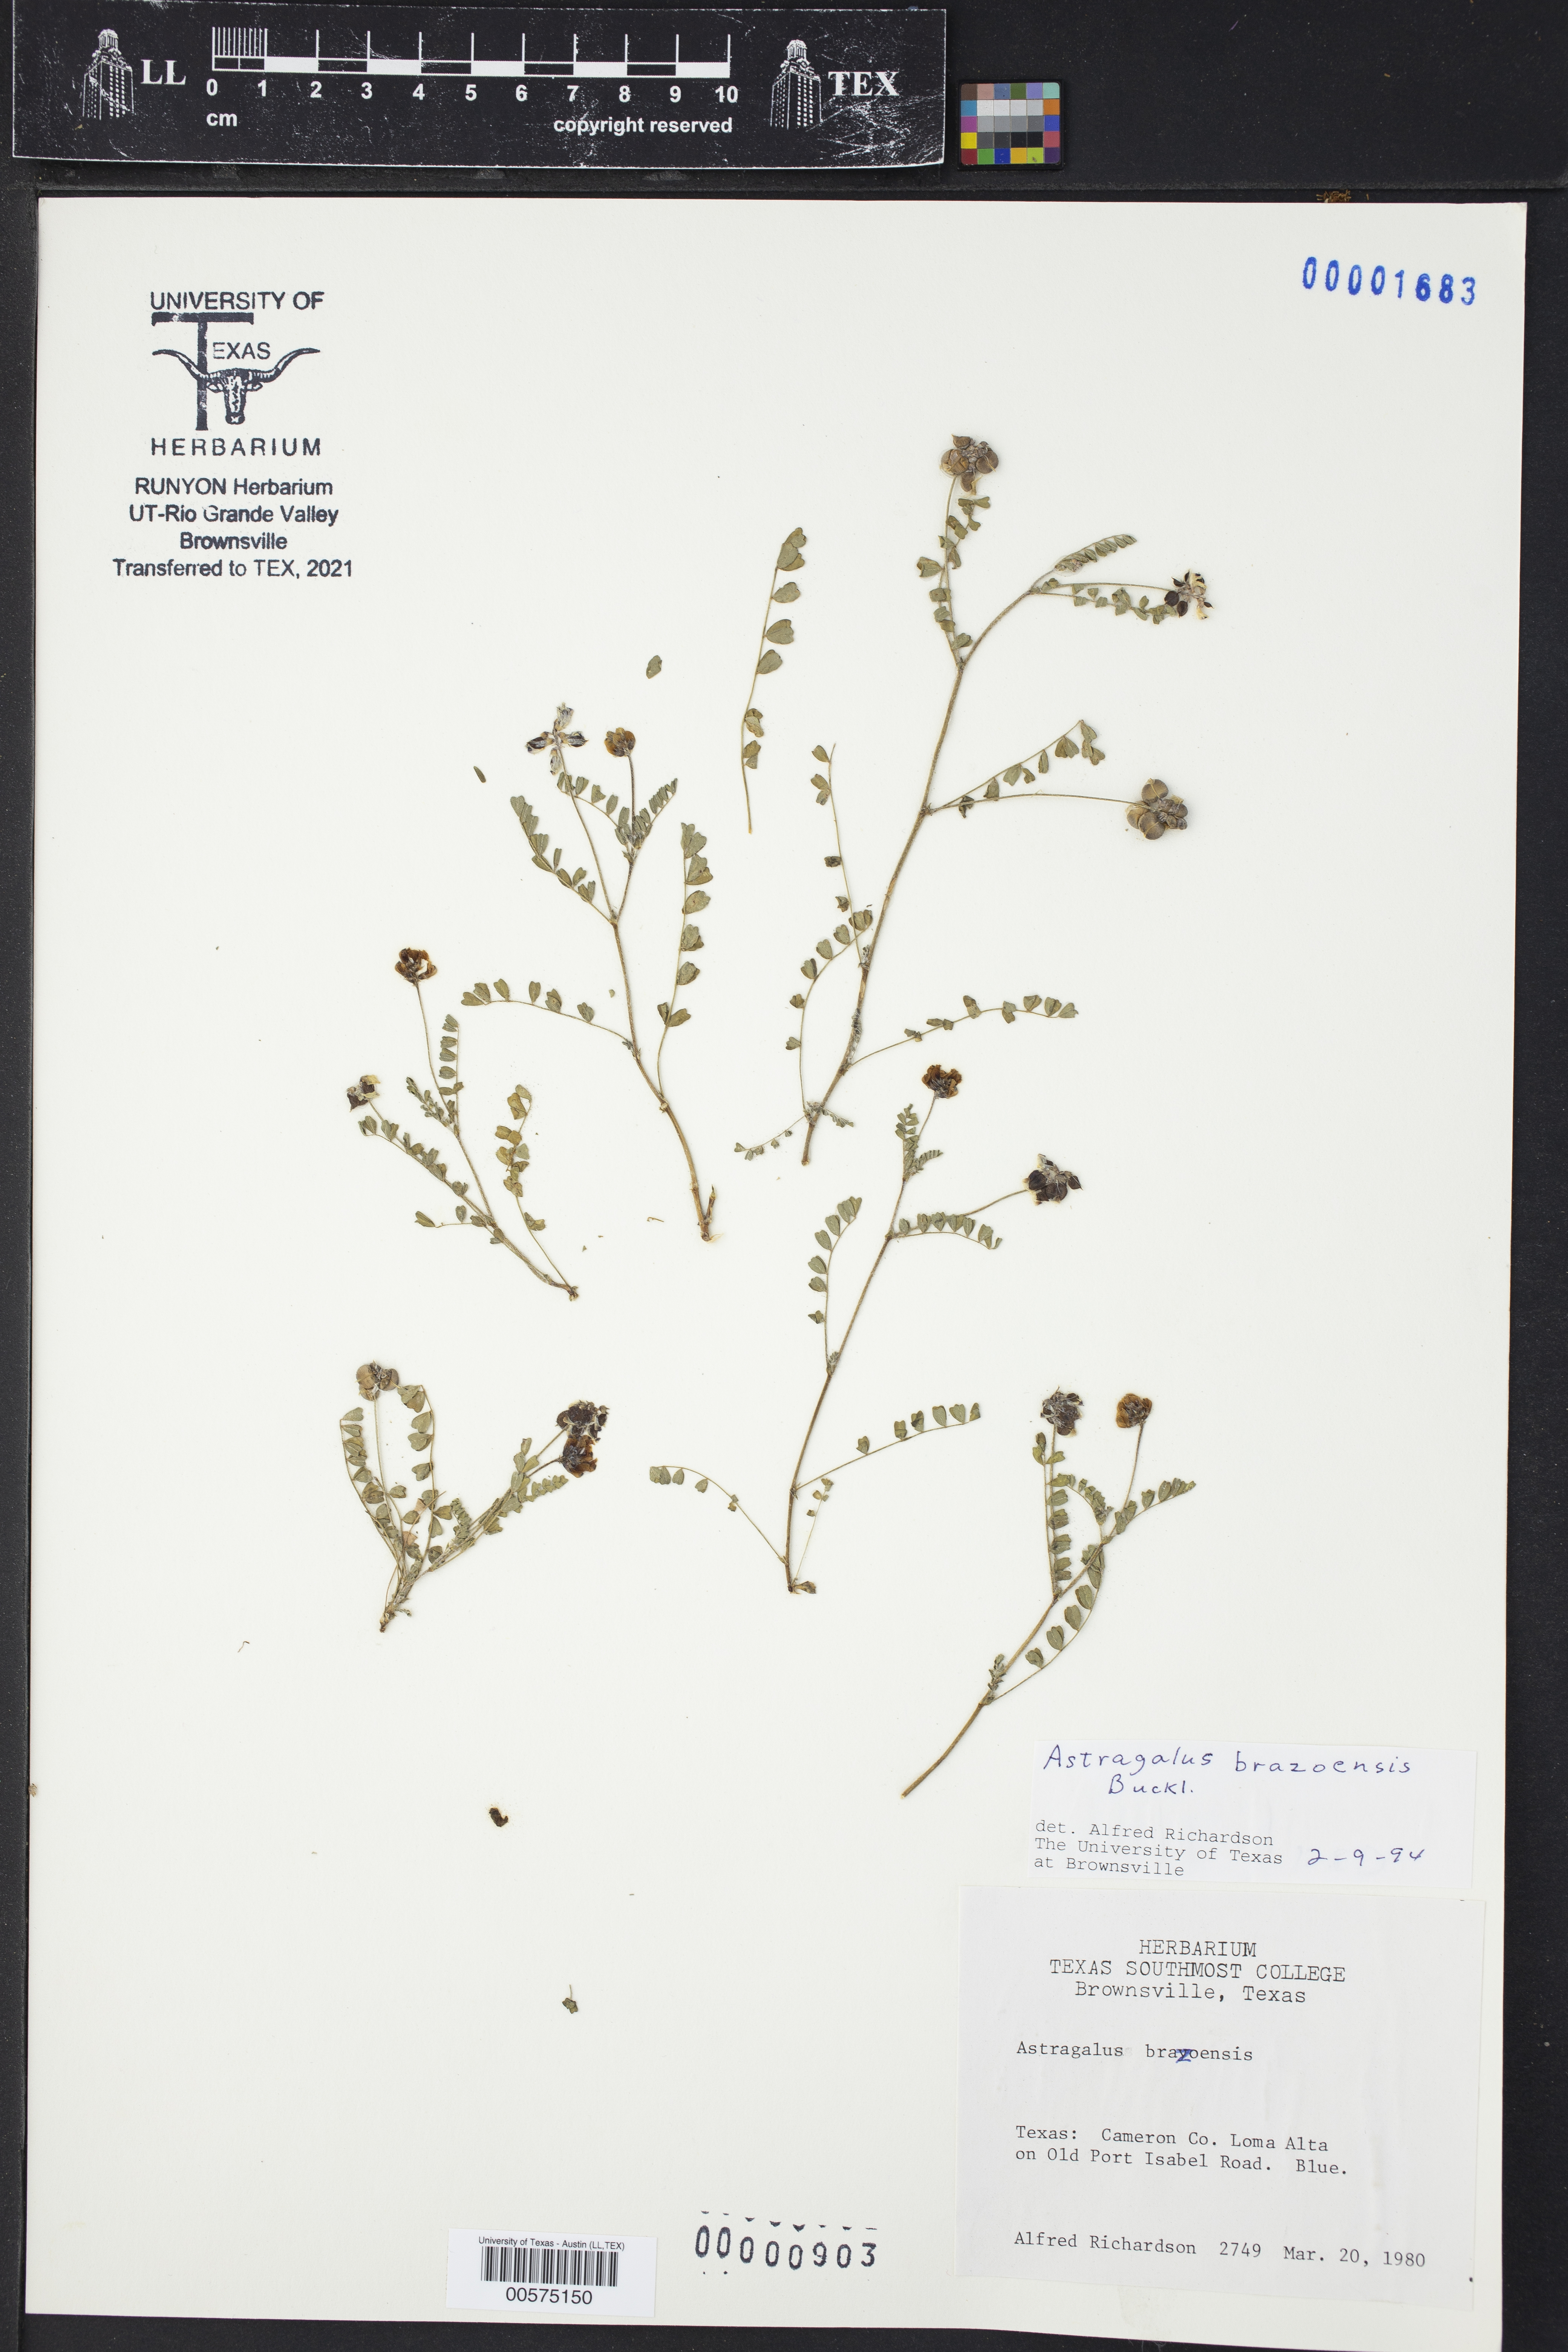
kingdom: Plantae
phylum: Tracheophyta
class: Magnoliopsida
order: Fabales
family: Fabaceae
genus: Astragalus
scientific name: Astragalus brazoensis
